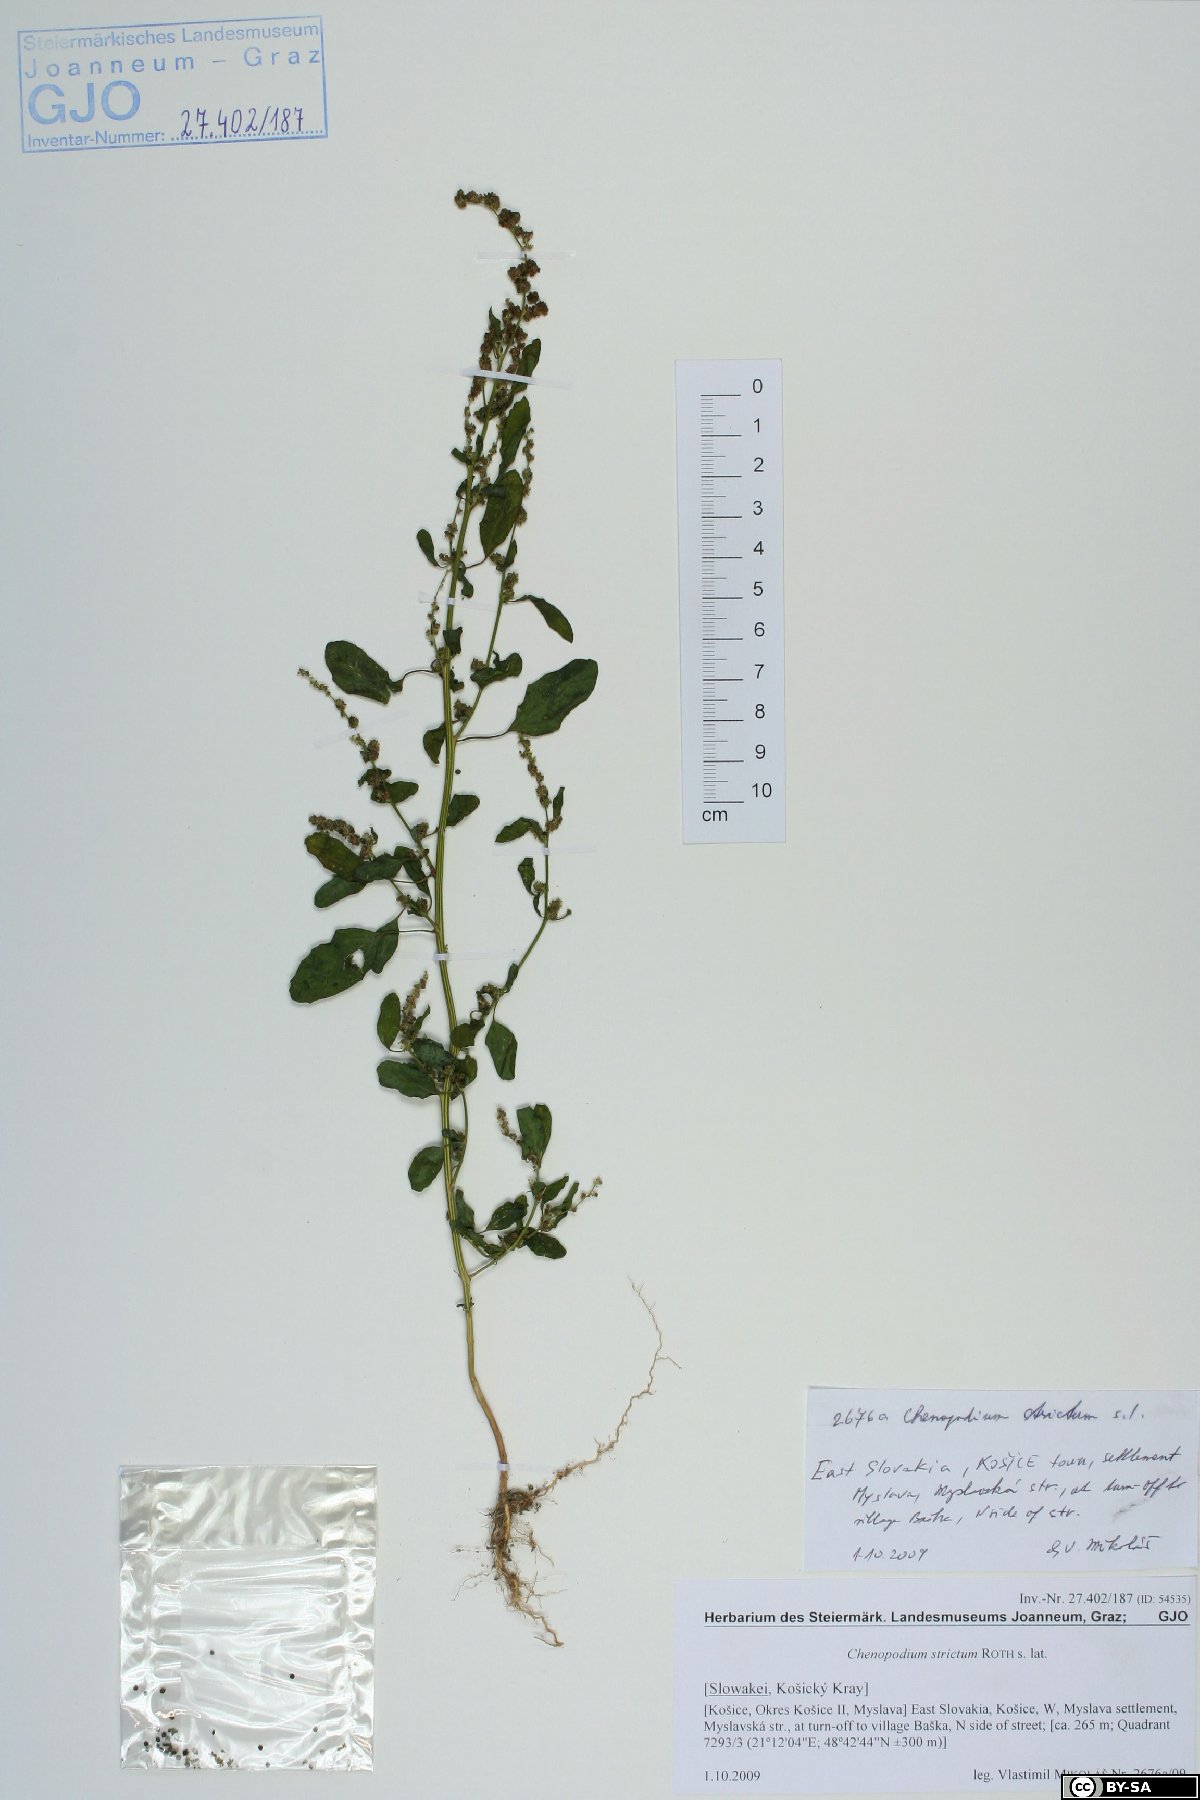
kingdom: Plantae
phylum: Tracheophyta
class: Magnoliopsida
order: Caryophyllales
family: Amaranthaceae
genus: Chenopodium
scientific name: Chenopodium album
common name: Fat-hen
